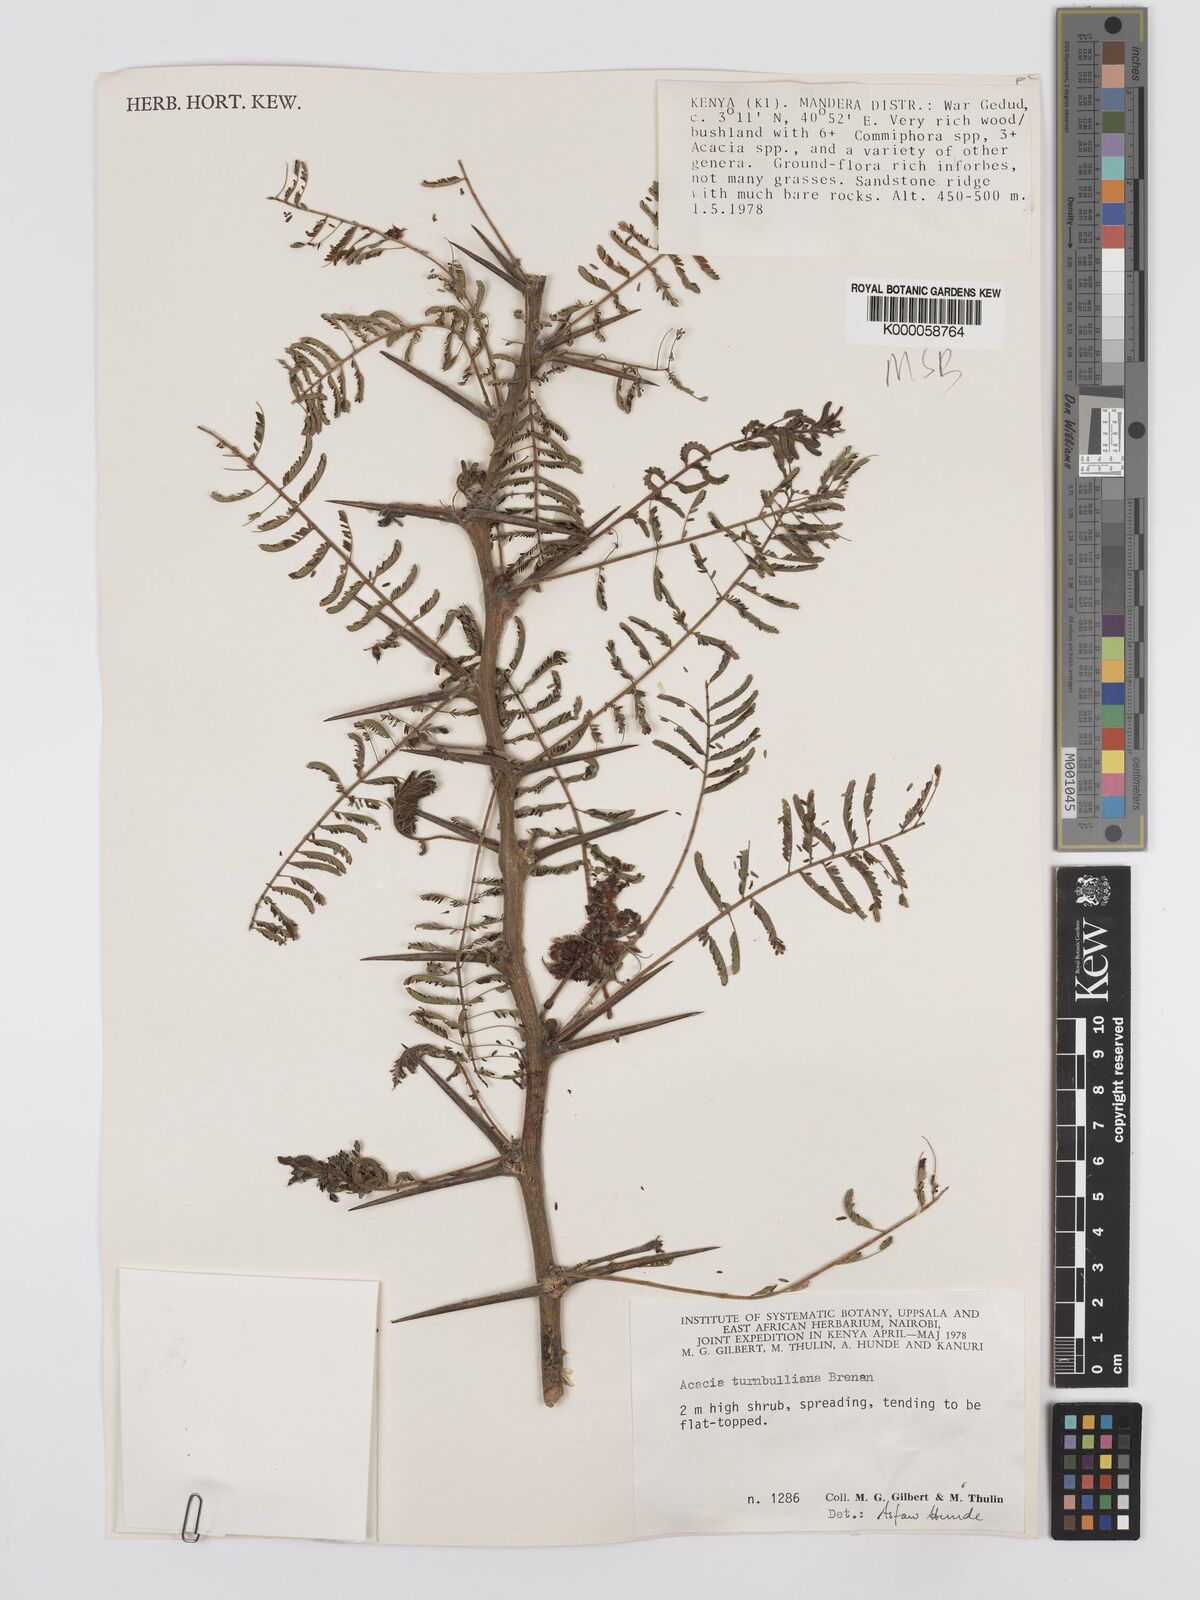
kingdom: Plantae
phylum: Tracheophyta
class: Magnoliopsida
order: Fabales
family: Fabaceae
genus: Vachellia
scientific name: Vachellia edgeworthii
